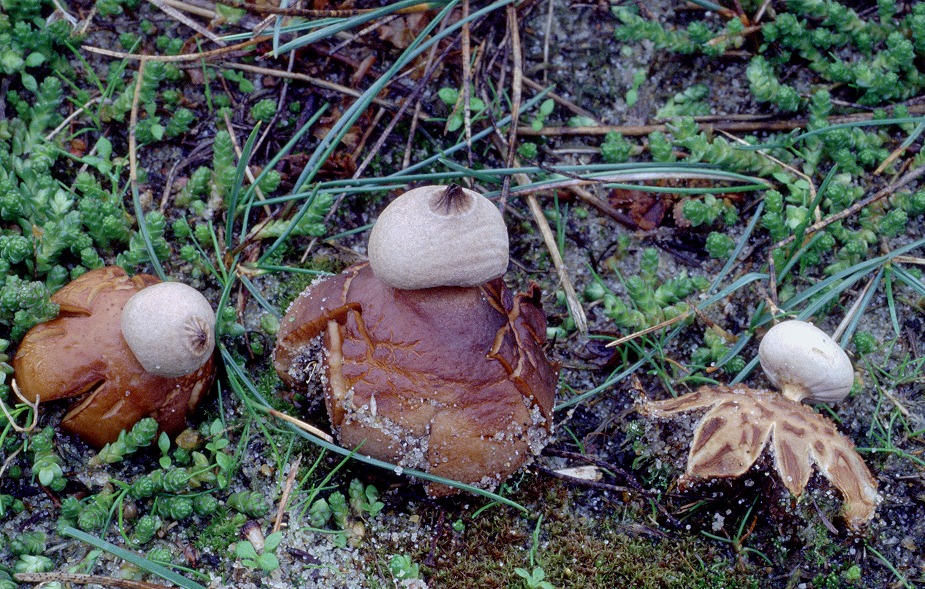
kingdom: Fungi
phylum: Basidiomycota
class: Agaricomycetes
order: Geastrales
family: Geastraceae
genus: Geastrum
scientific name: Geastrum striatum
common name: dværg-stjernebold
